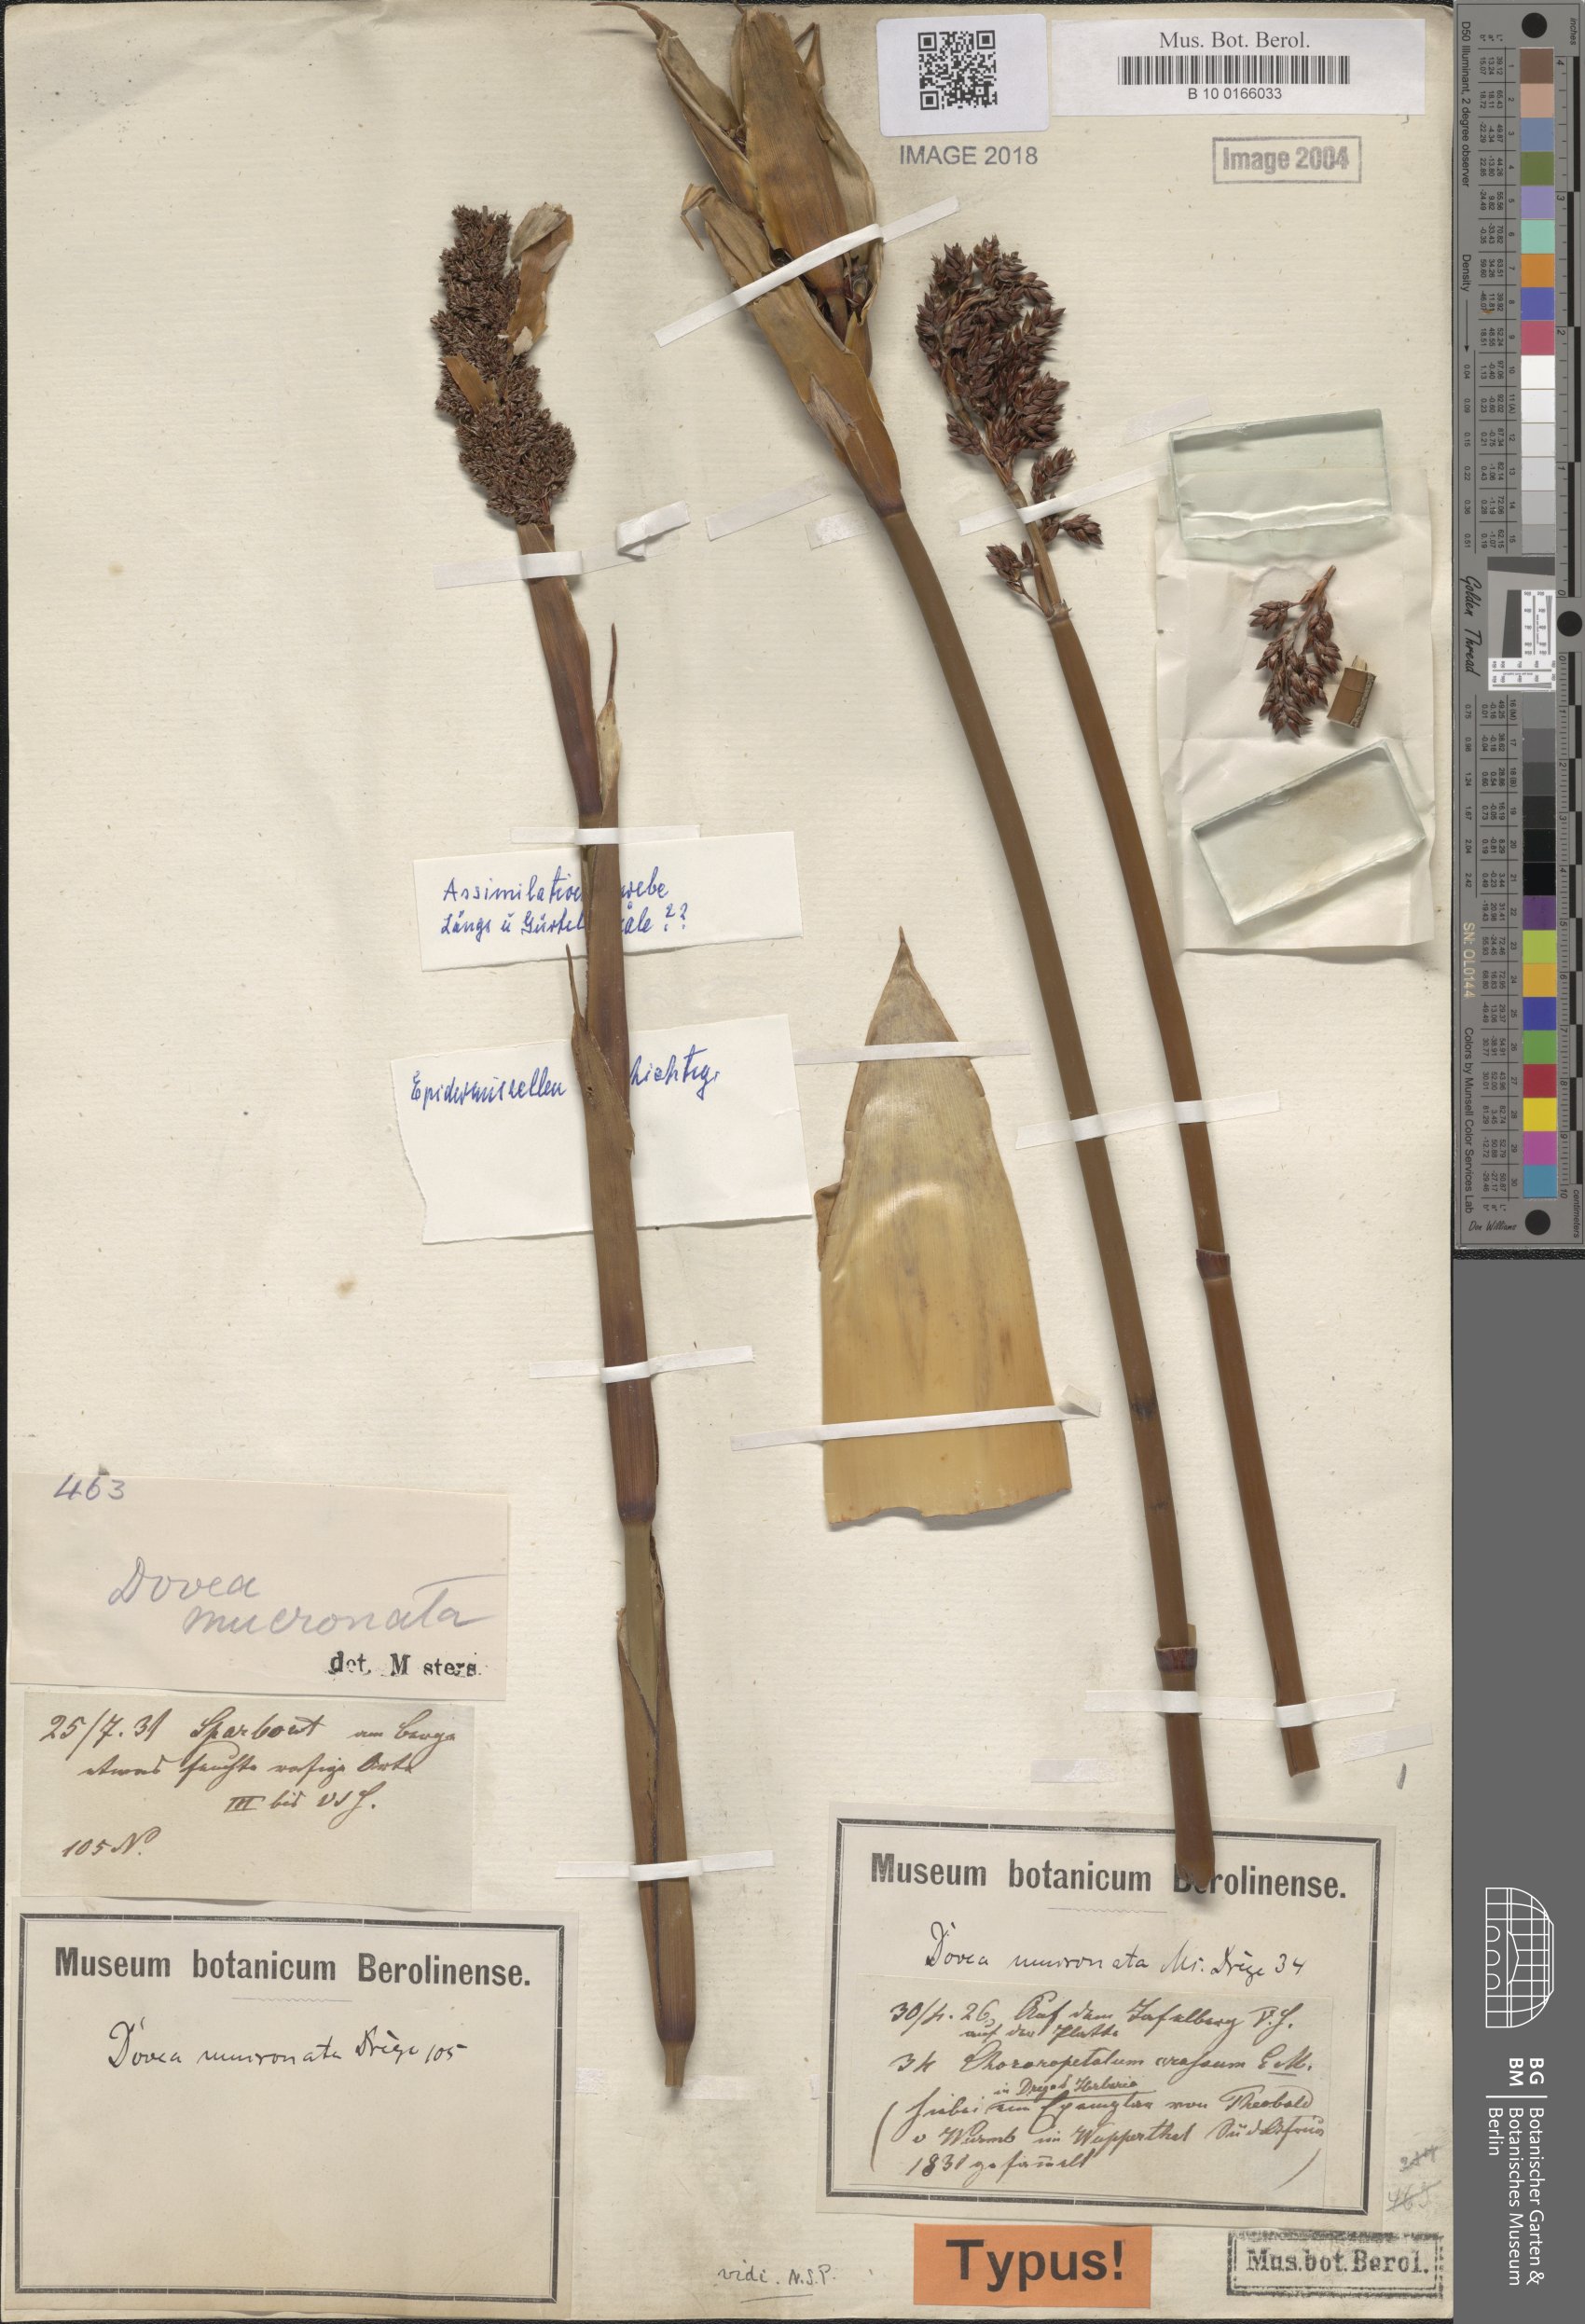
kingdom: Plantae
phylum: Tracheophyta
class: Liliopsida
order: Poales
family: Restionaceae
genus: Elegia
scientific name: Elegia mucronata
